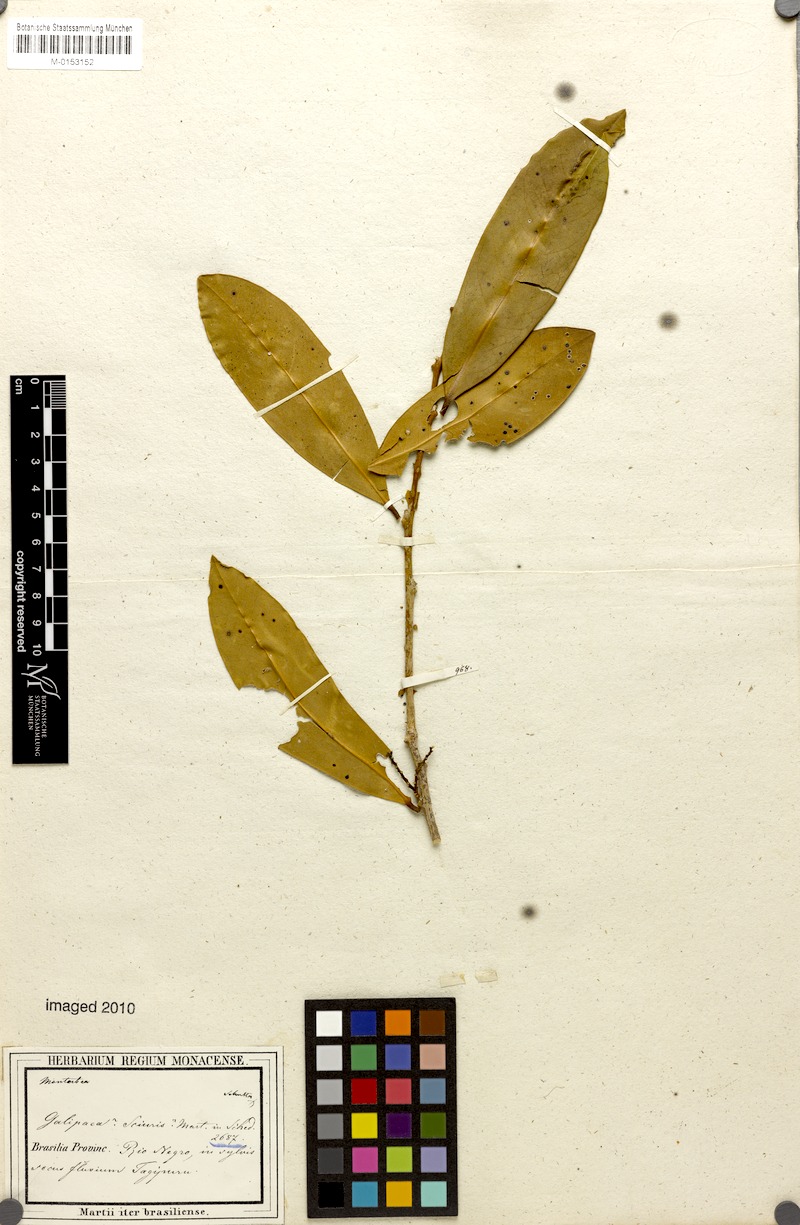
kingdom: Plantae
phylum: Tracheophyta
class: Magnoliopsida
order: Fabales
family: Polygalaceae
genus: Moutabea
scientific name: Moutabea aculeata
